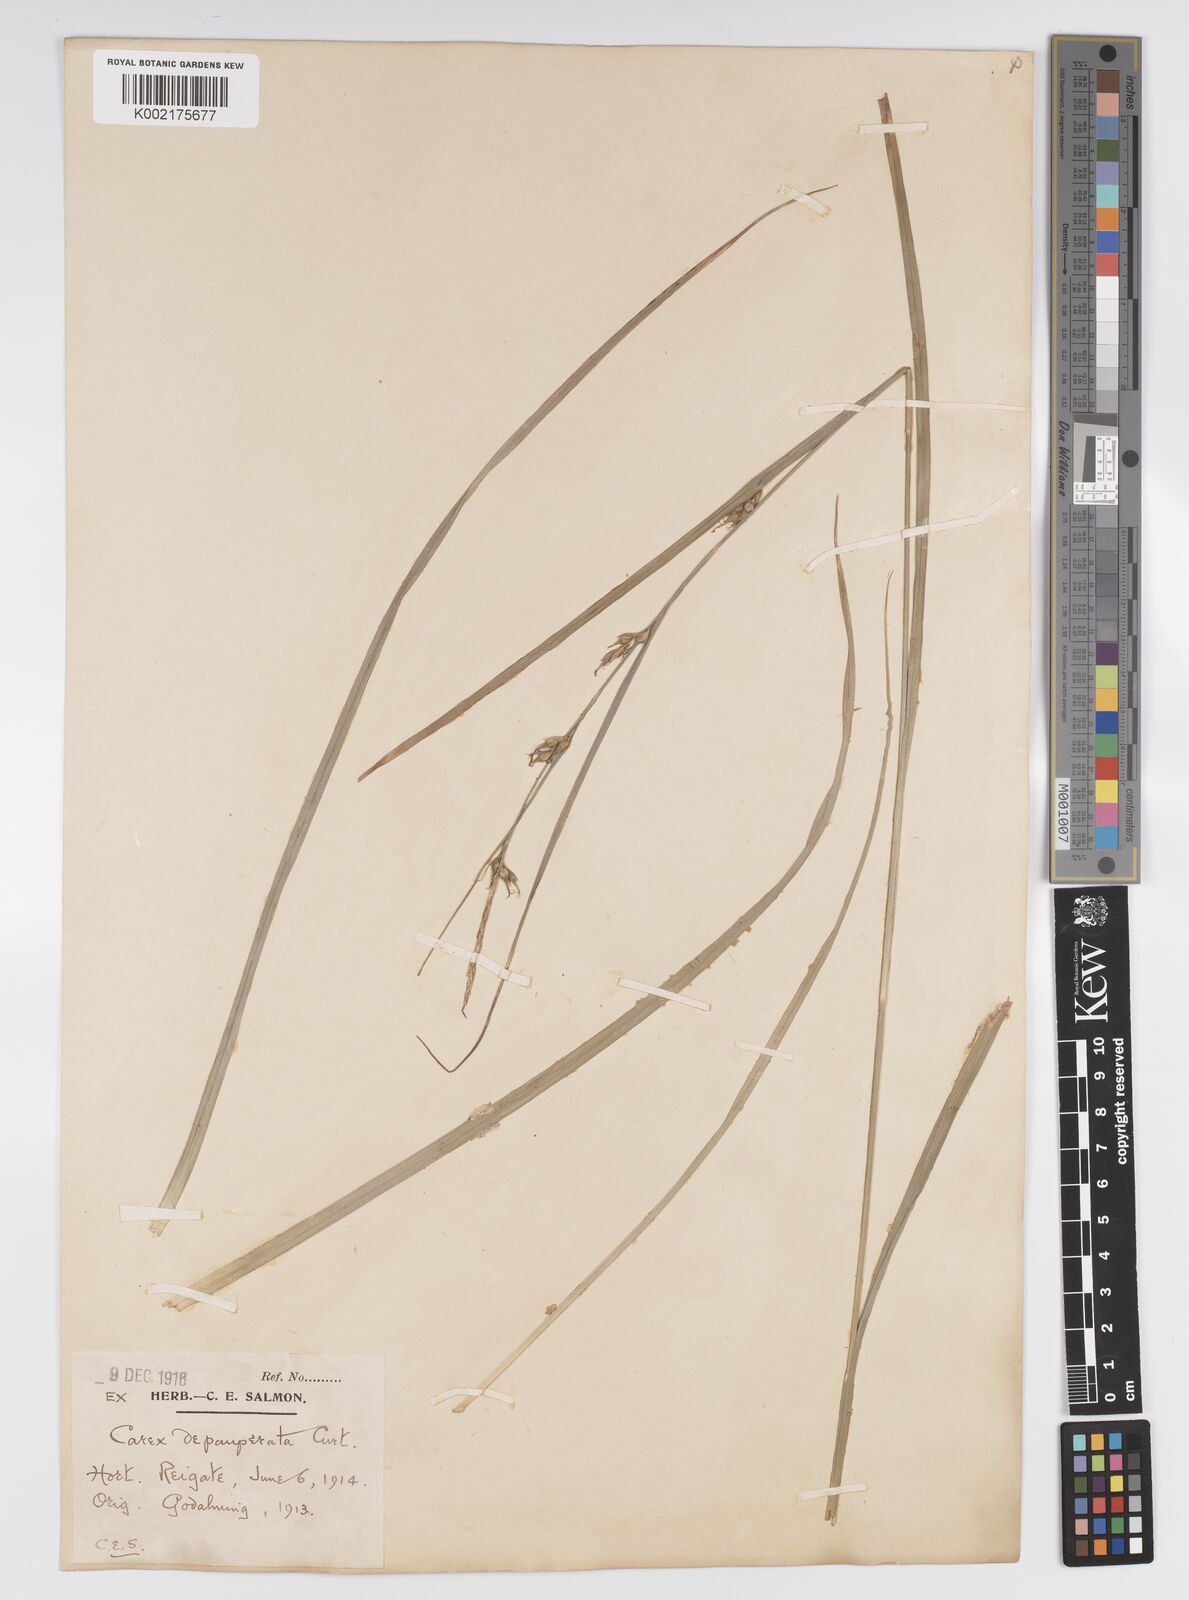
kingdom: Plantae
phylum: Tracheophyta
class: Liliopsida
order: Poales
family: Cyperaceae
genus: Carex
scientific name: Carex vaginata
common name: Sheathed sedge
